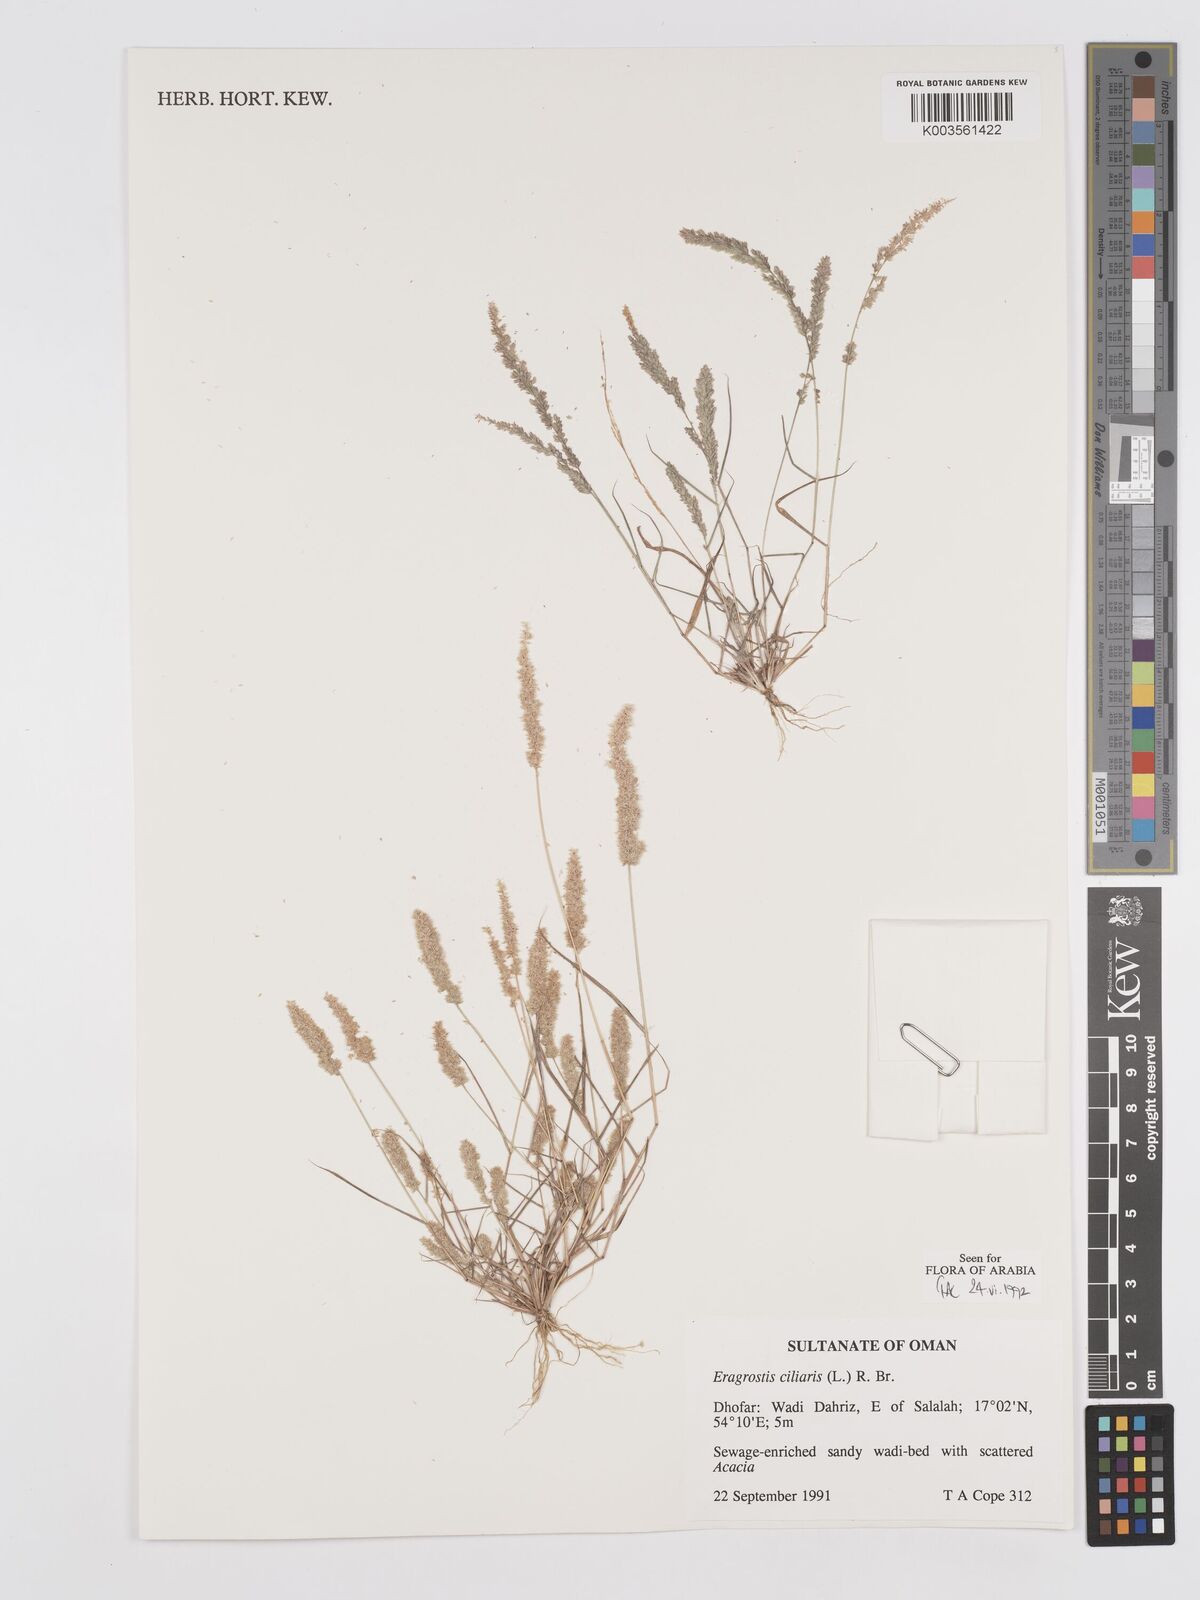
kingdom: Plantae
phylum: Tracheophyta
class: Liliopsida
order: Poales
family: Poaceae
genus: Eragrostis
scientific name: Eragrostis ciliaris
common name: Gophertail lovegrass
